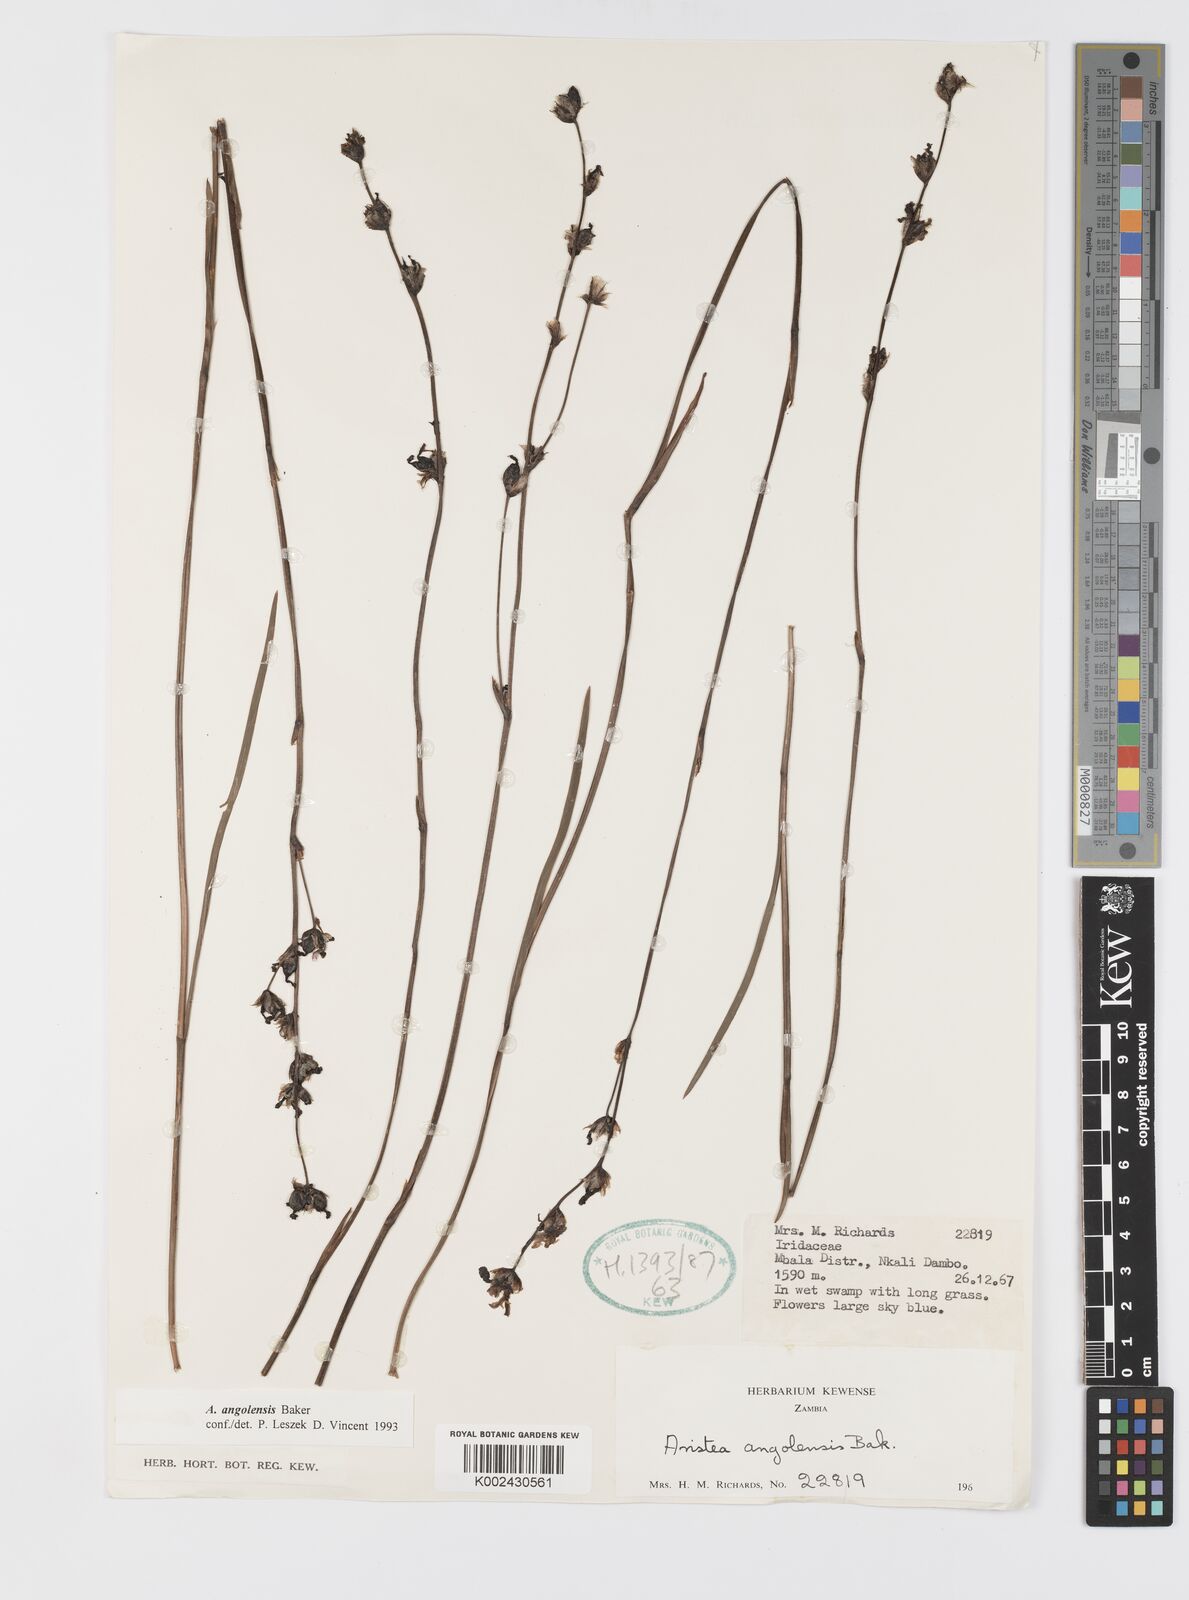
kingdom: Plantae
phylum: Tracheophyta
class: Liliopsida
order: Asparagales
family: Iridaceae
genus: Aristea
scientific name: Aristea angolensis
